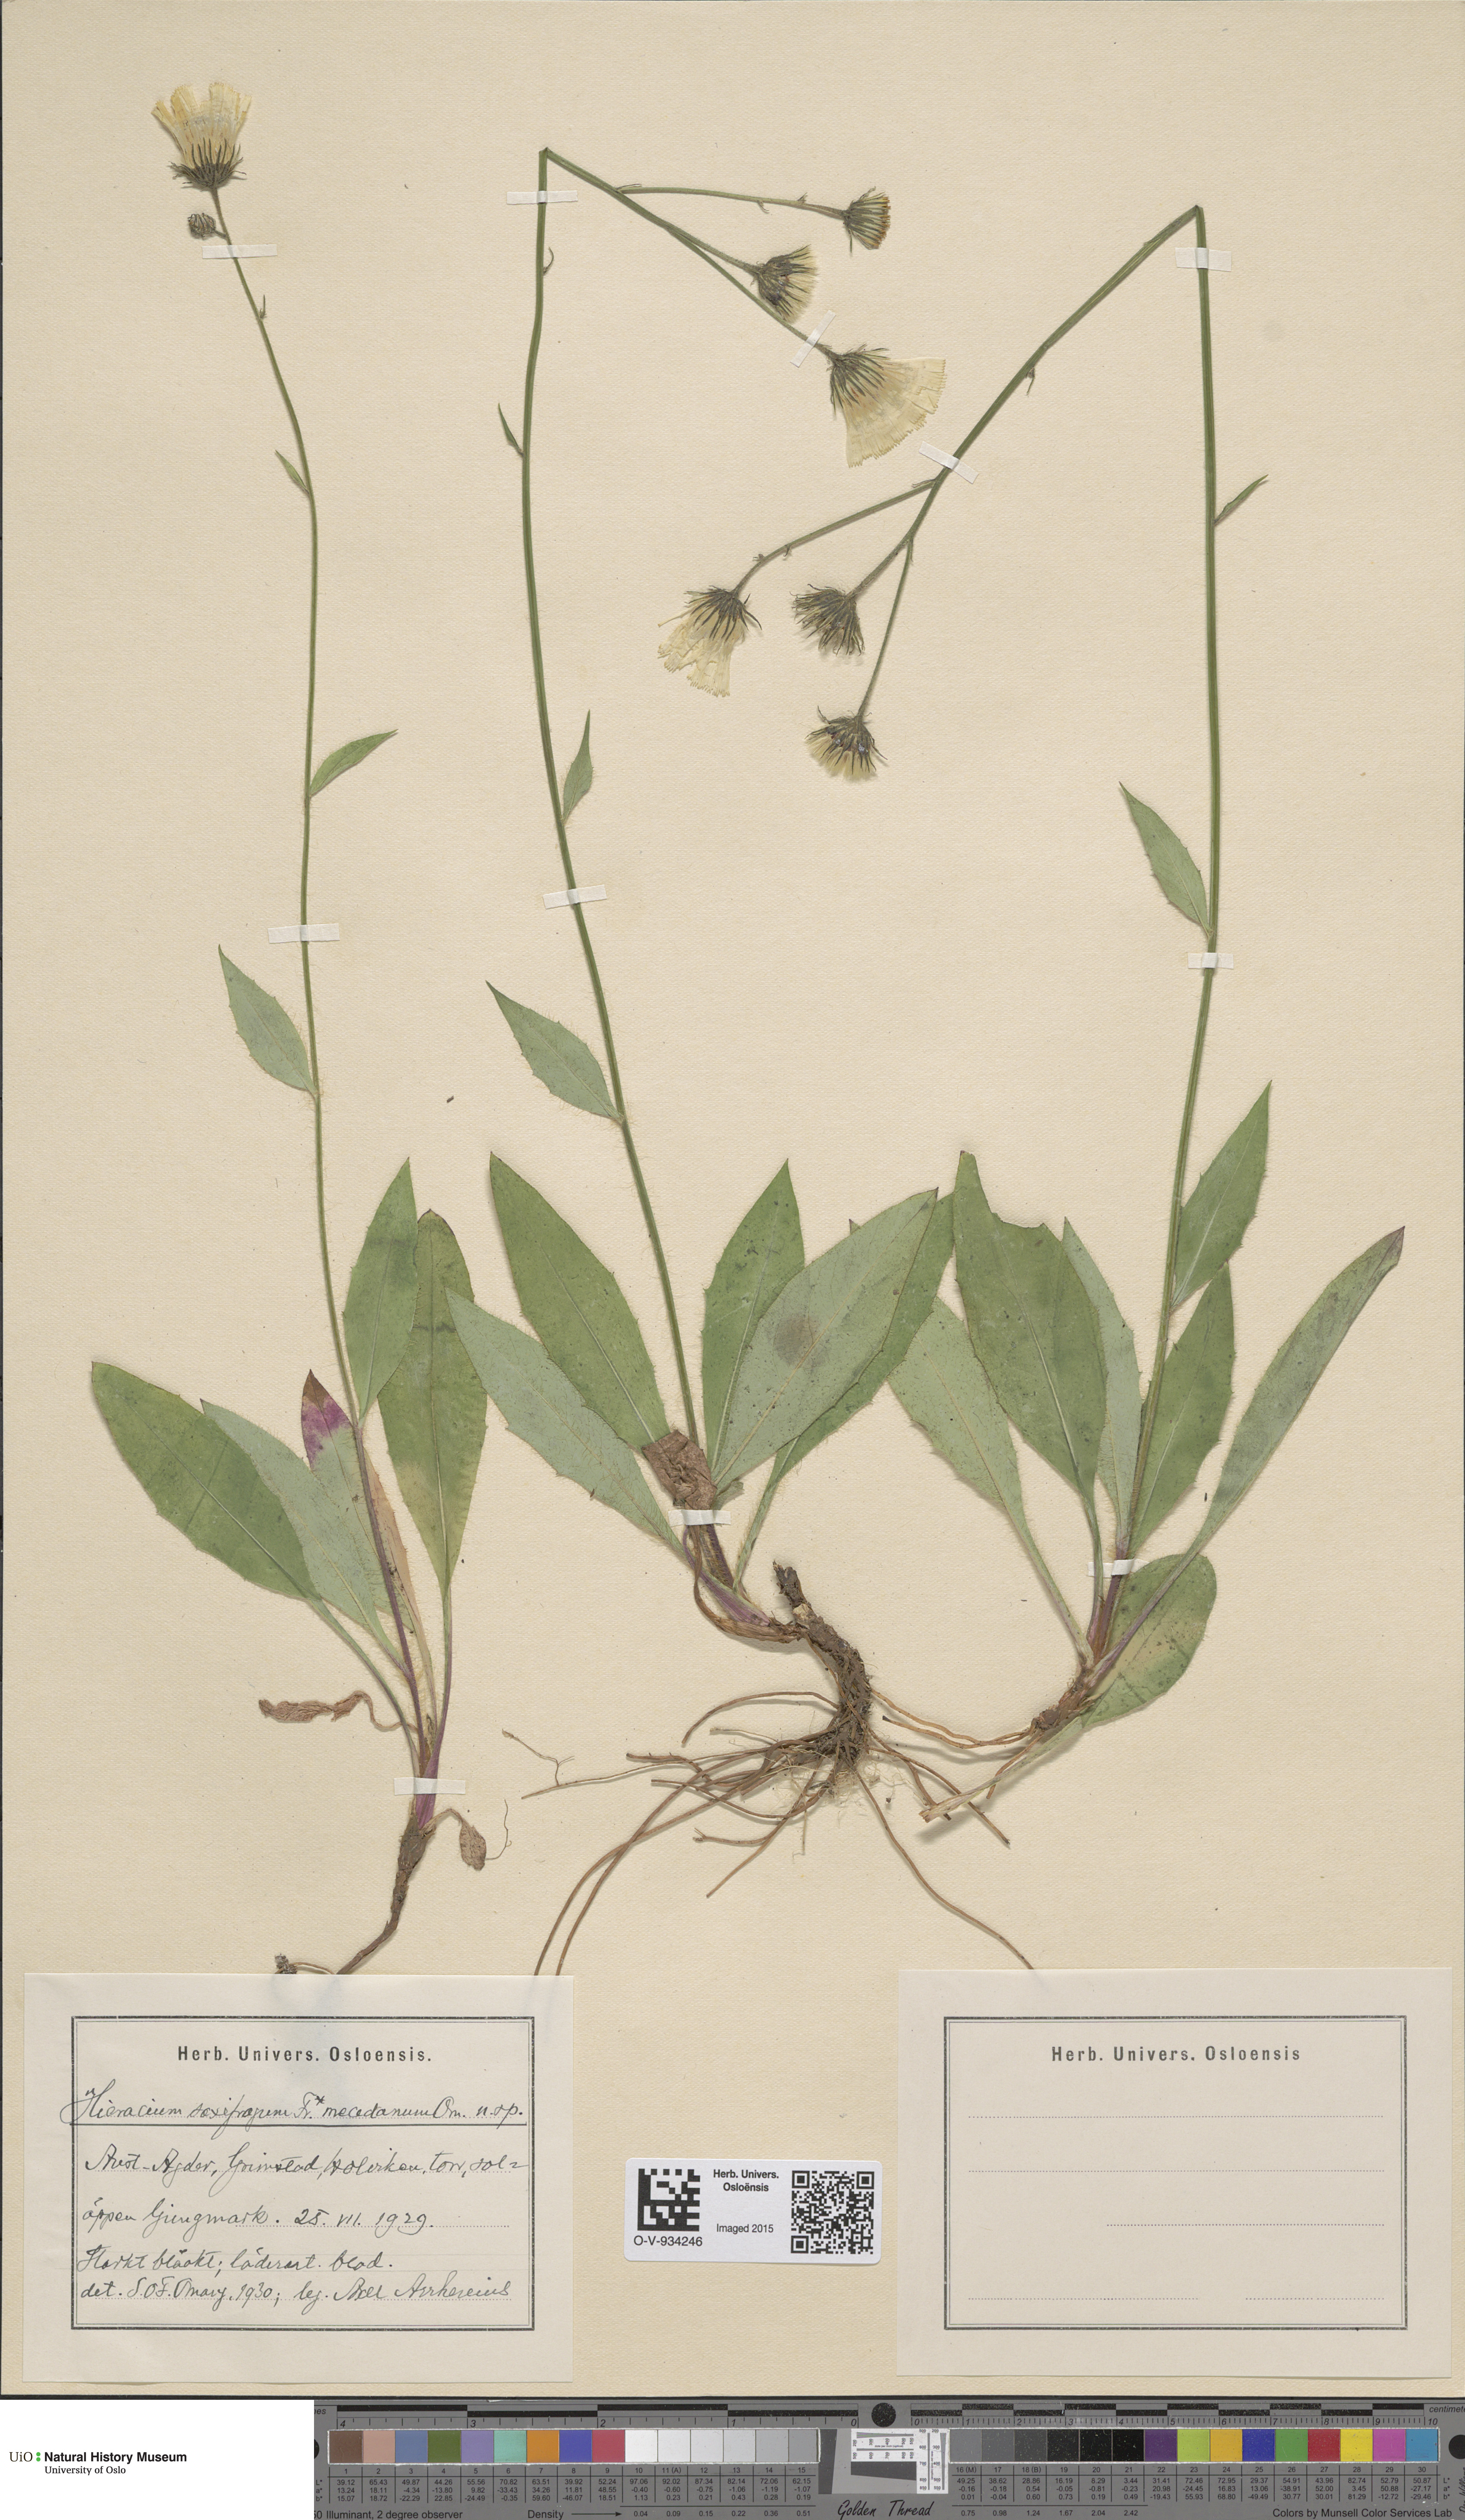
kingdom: Plantae
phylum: Tracheophyta
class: Magnoliopsida
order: Asterales
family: Asteraceae
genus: Hieracium
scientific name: Hieracium saxifragum
